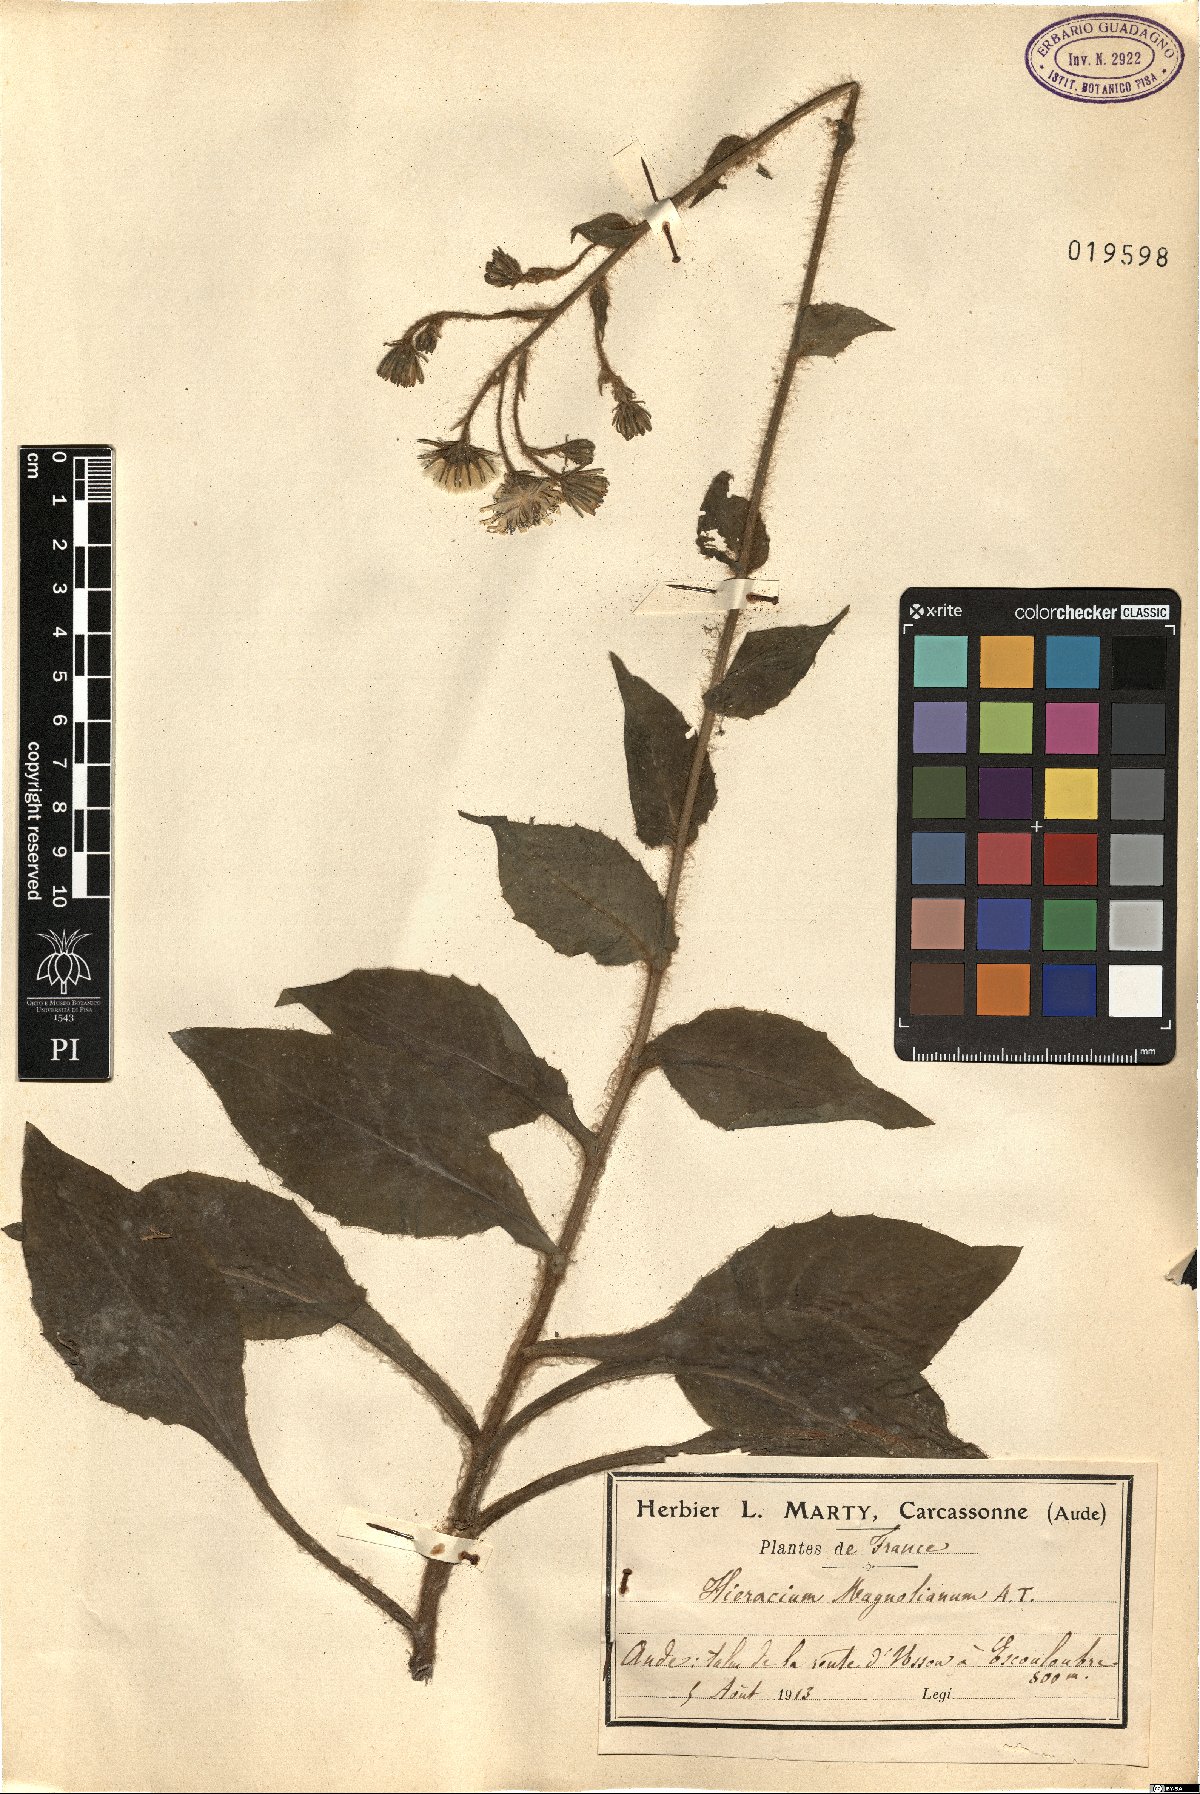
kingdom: Plantae
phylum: Tracheophyta
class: Magnoliopsida
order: Asterales
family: Asteraceae
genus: Hieracium
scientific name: Hieracium compositum
